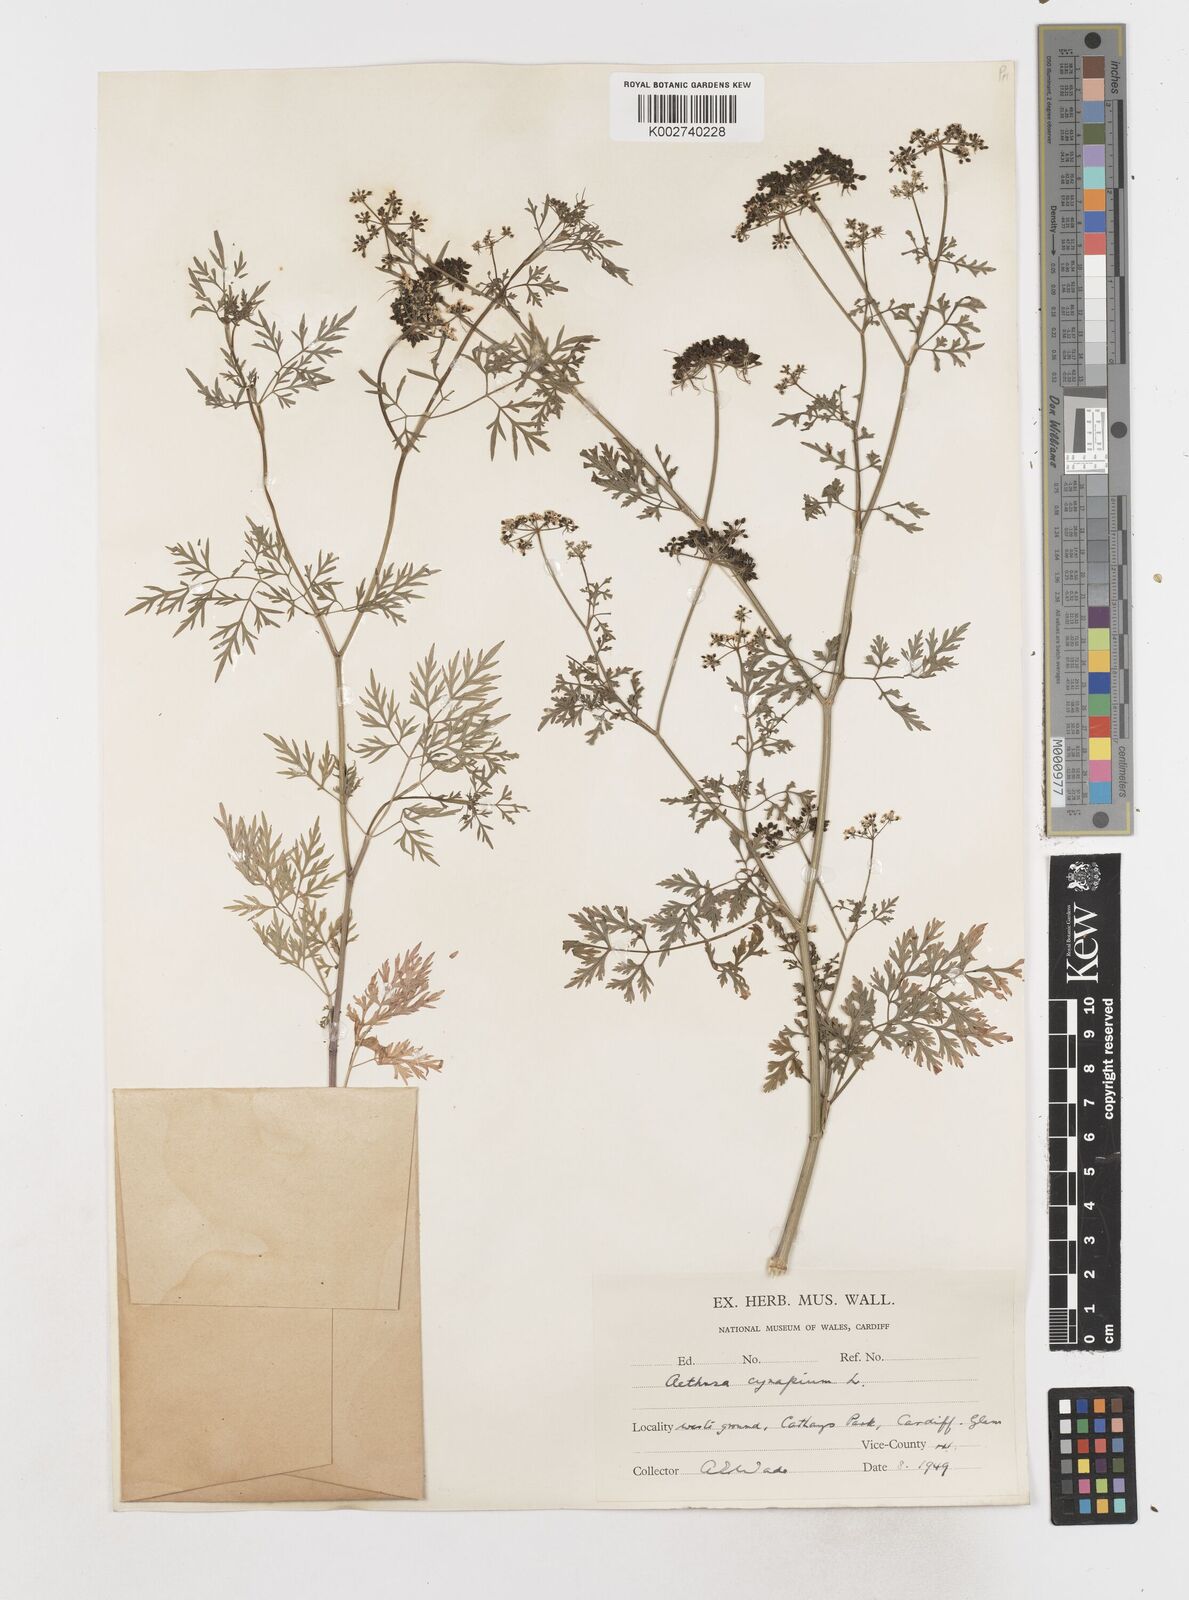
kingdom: Plantae
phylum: Tracheophyta
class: Magnoliopsida
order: Apiales
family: Apiaceae
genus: Aethusa
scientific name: Aethusa cynapium
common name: Fool's parsley
